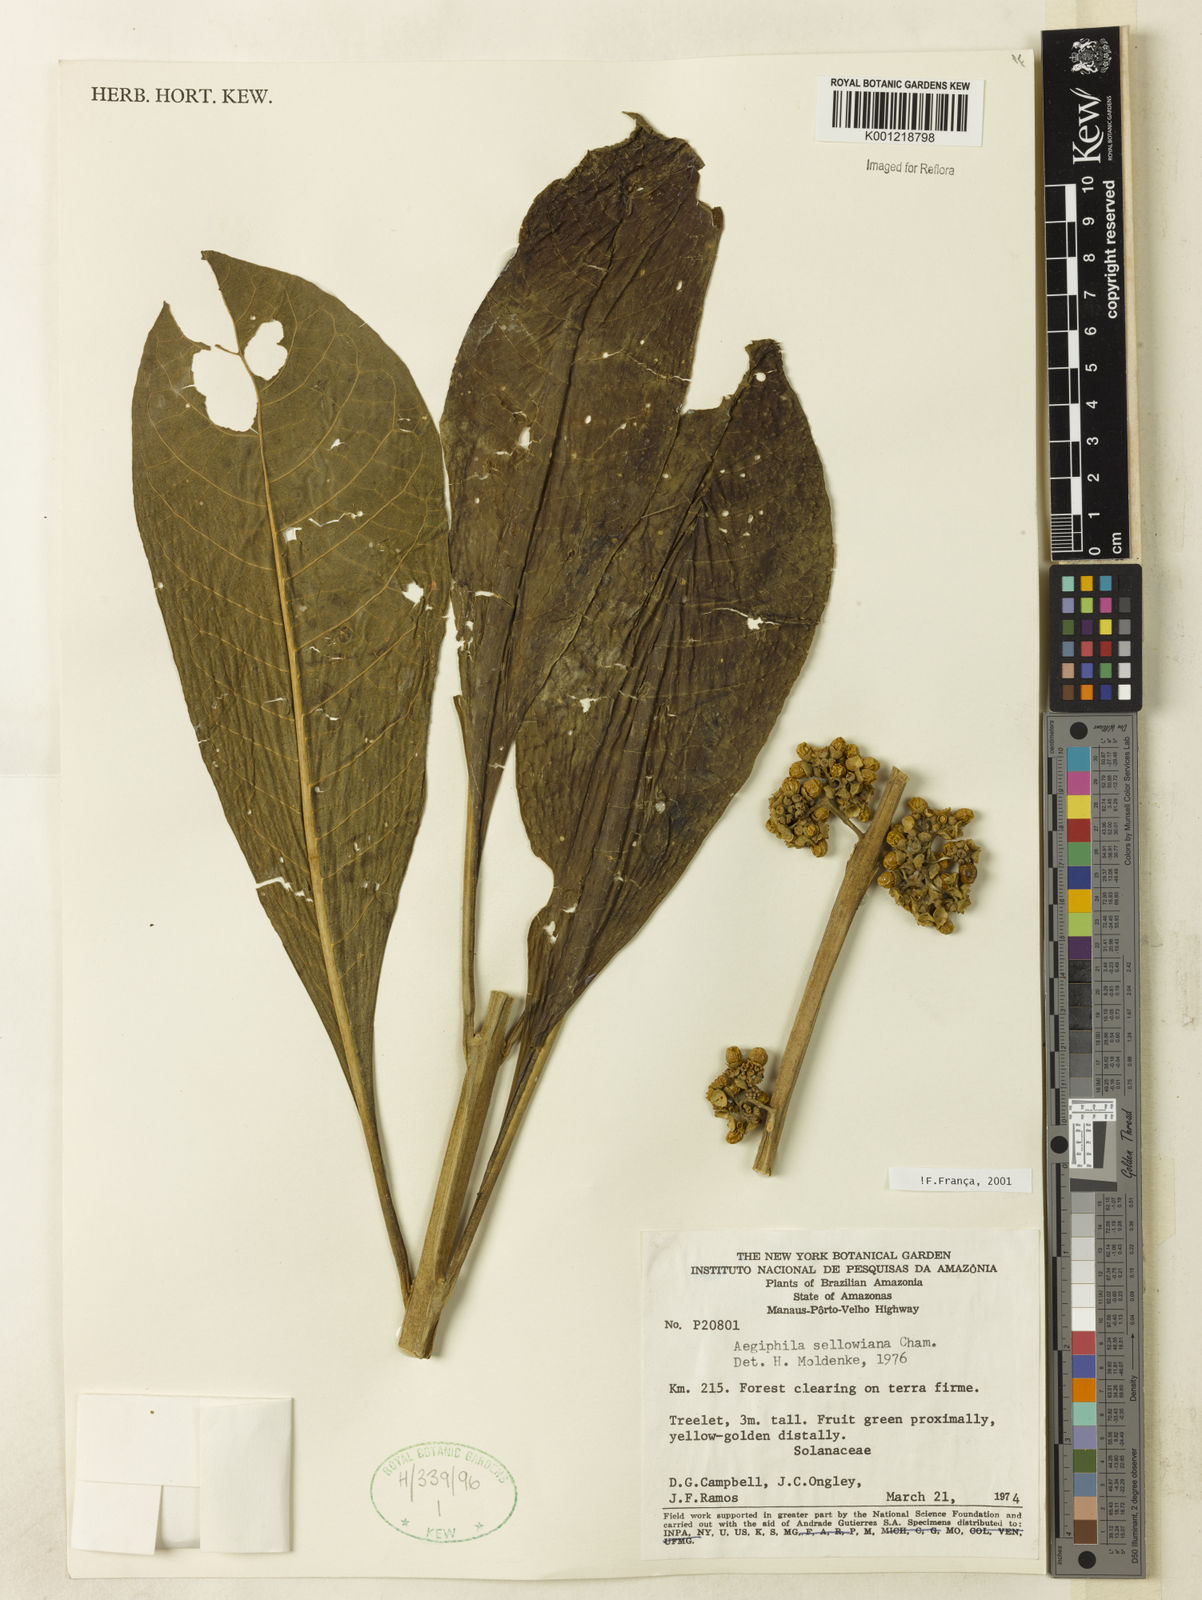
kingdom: Plantae
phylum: Tracheophyta
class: Magnoliopsida
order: Lamiales
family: Lamiaceae
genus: Aegiphila
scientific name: Aegiphila verticillata
